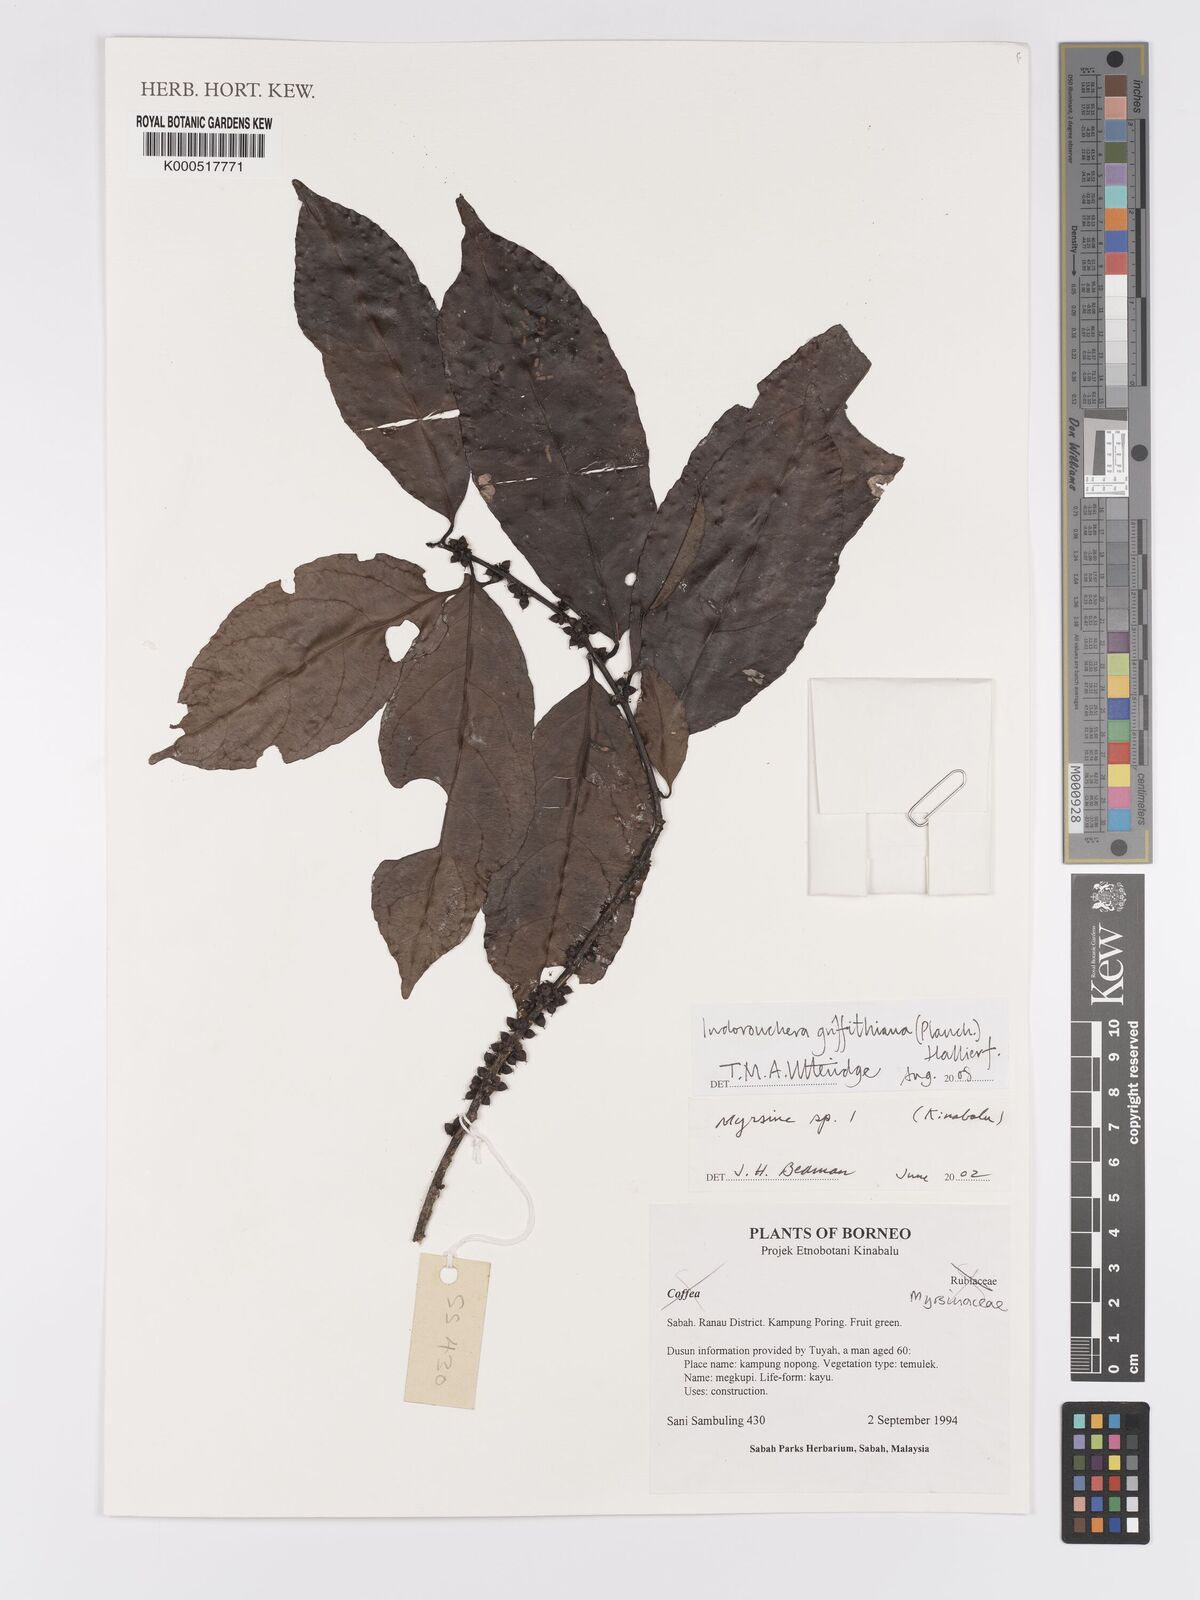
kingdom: Plantae
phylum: Tracheophyta
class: Magnoliopsida
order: Malpighiales
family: Linaceae
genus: Indorouchera
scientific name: Indorouchera griffithiana
